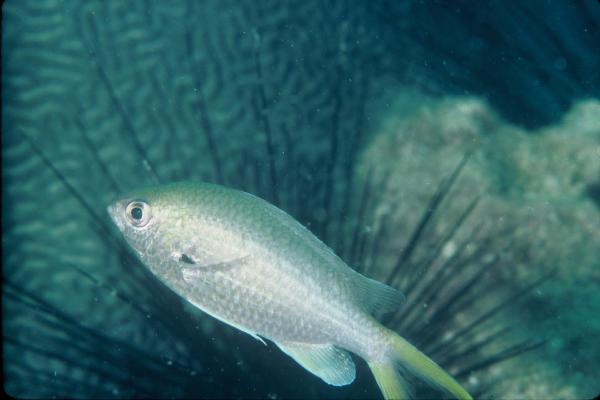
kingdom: Animalia
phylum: Chordata
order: Perciformes
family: Pomacentridae
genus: Chromis
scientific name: Chromis xanthopterygia
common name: Arabian chromis
